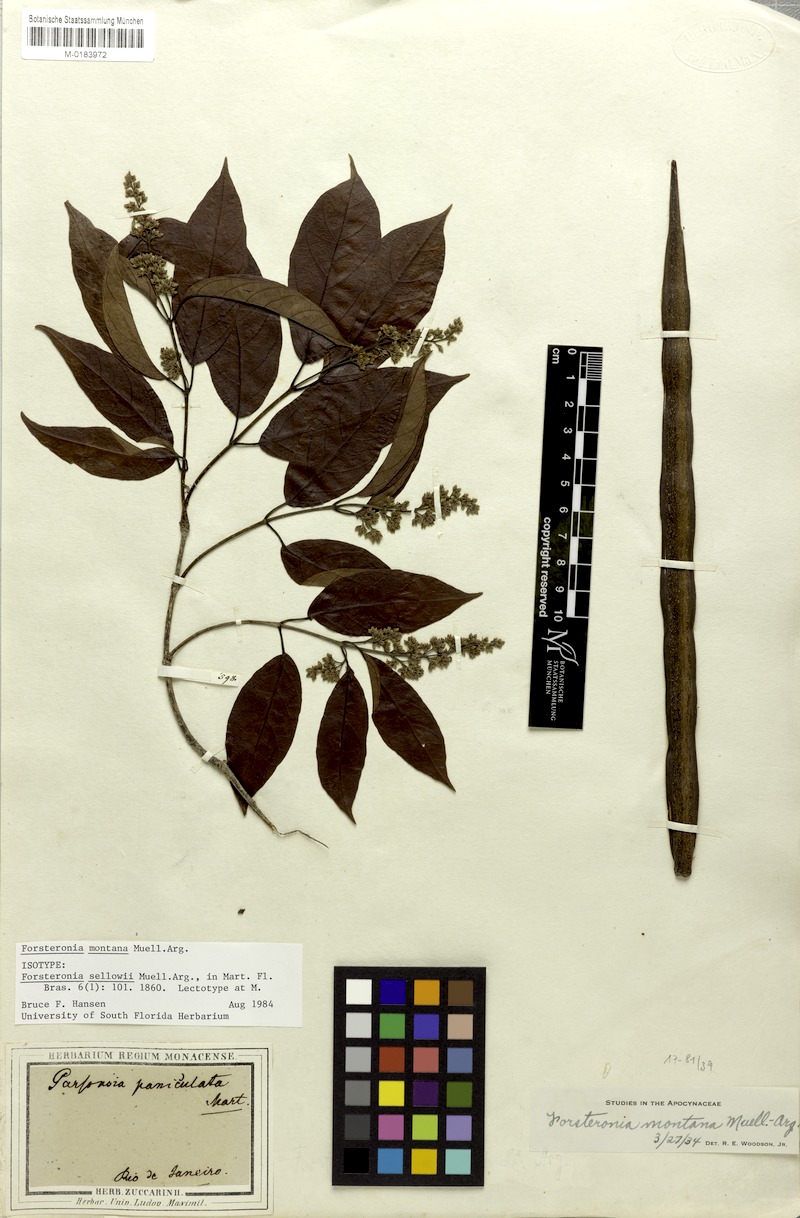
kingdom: Plantae
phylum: Tracheophyta
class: Magnoliopsida
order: Gentianales
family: Apocynaceae
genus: Forsteronia
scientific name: Forsteronia montana
